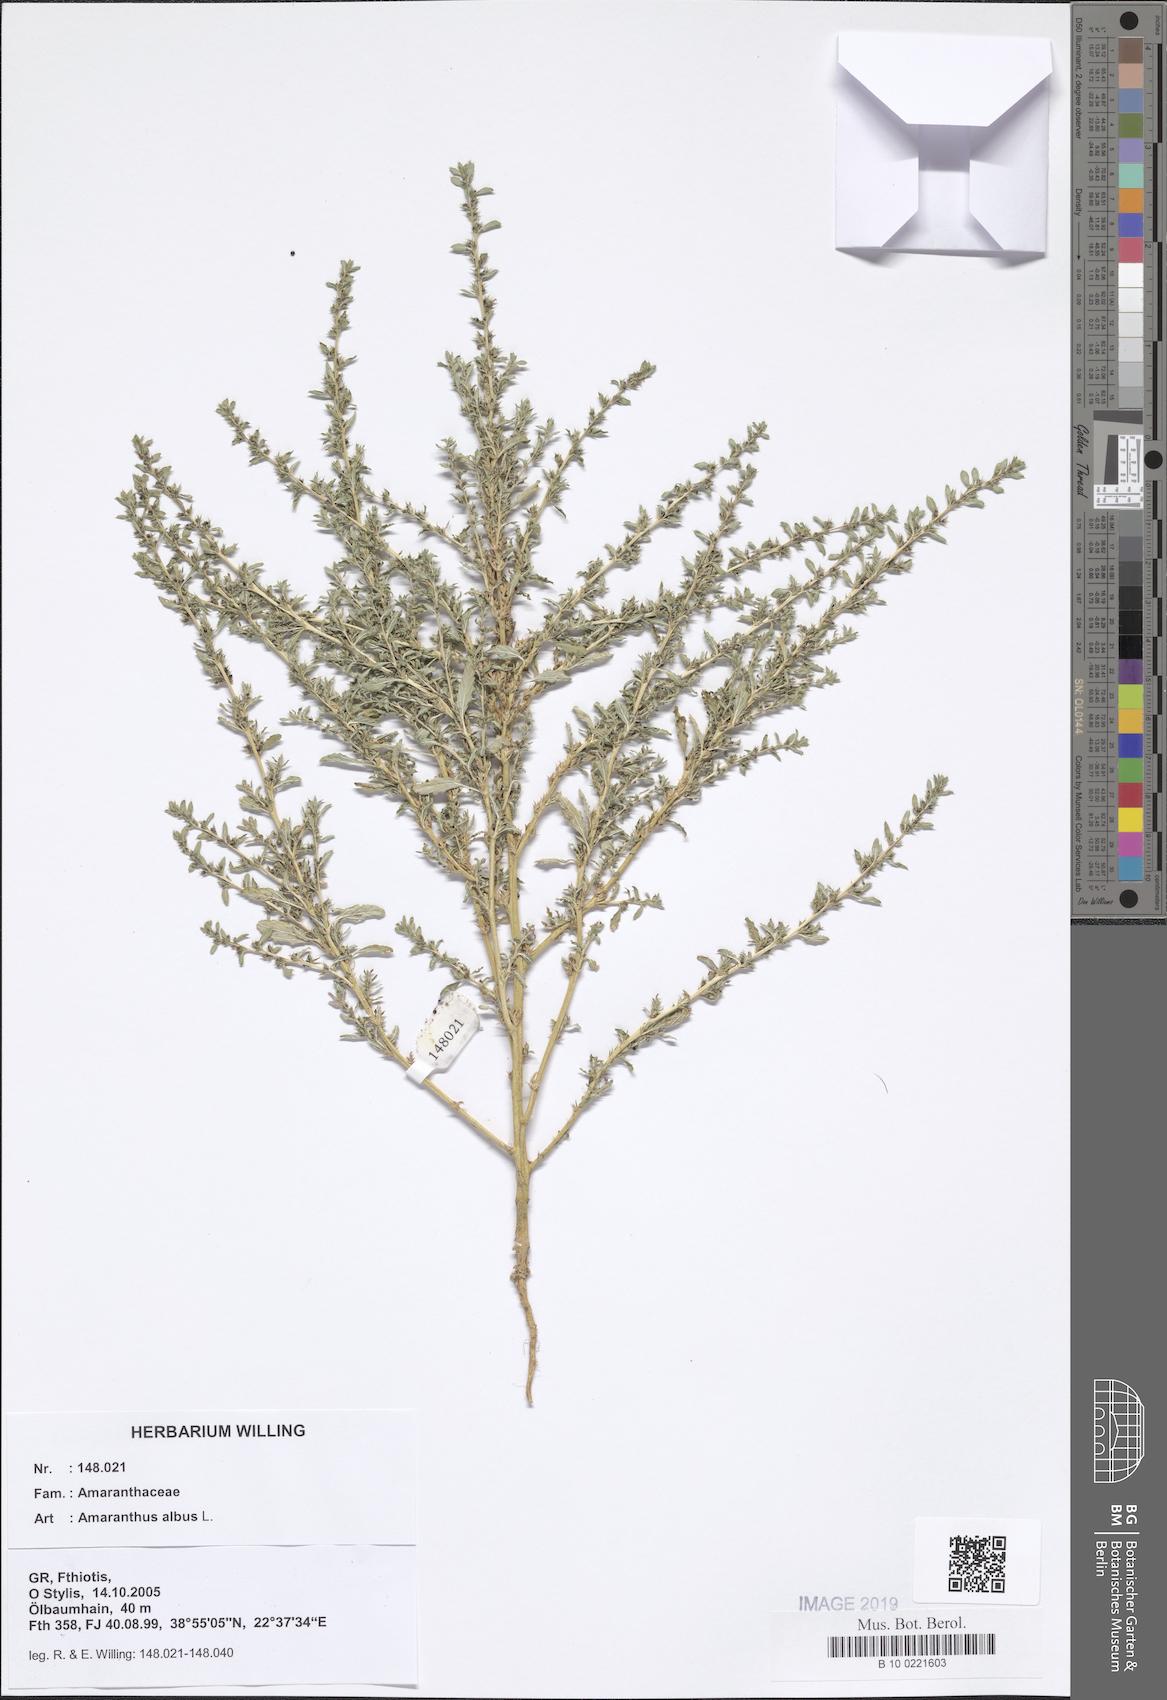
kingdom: Plantae
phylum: Tracheophyta
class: Magnoliopsida
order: Caryophyllales
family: Amaranthaceae
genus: Amaranthus
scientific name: Amaranthus albus
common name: White pigweed
